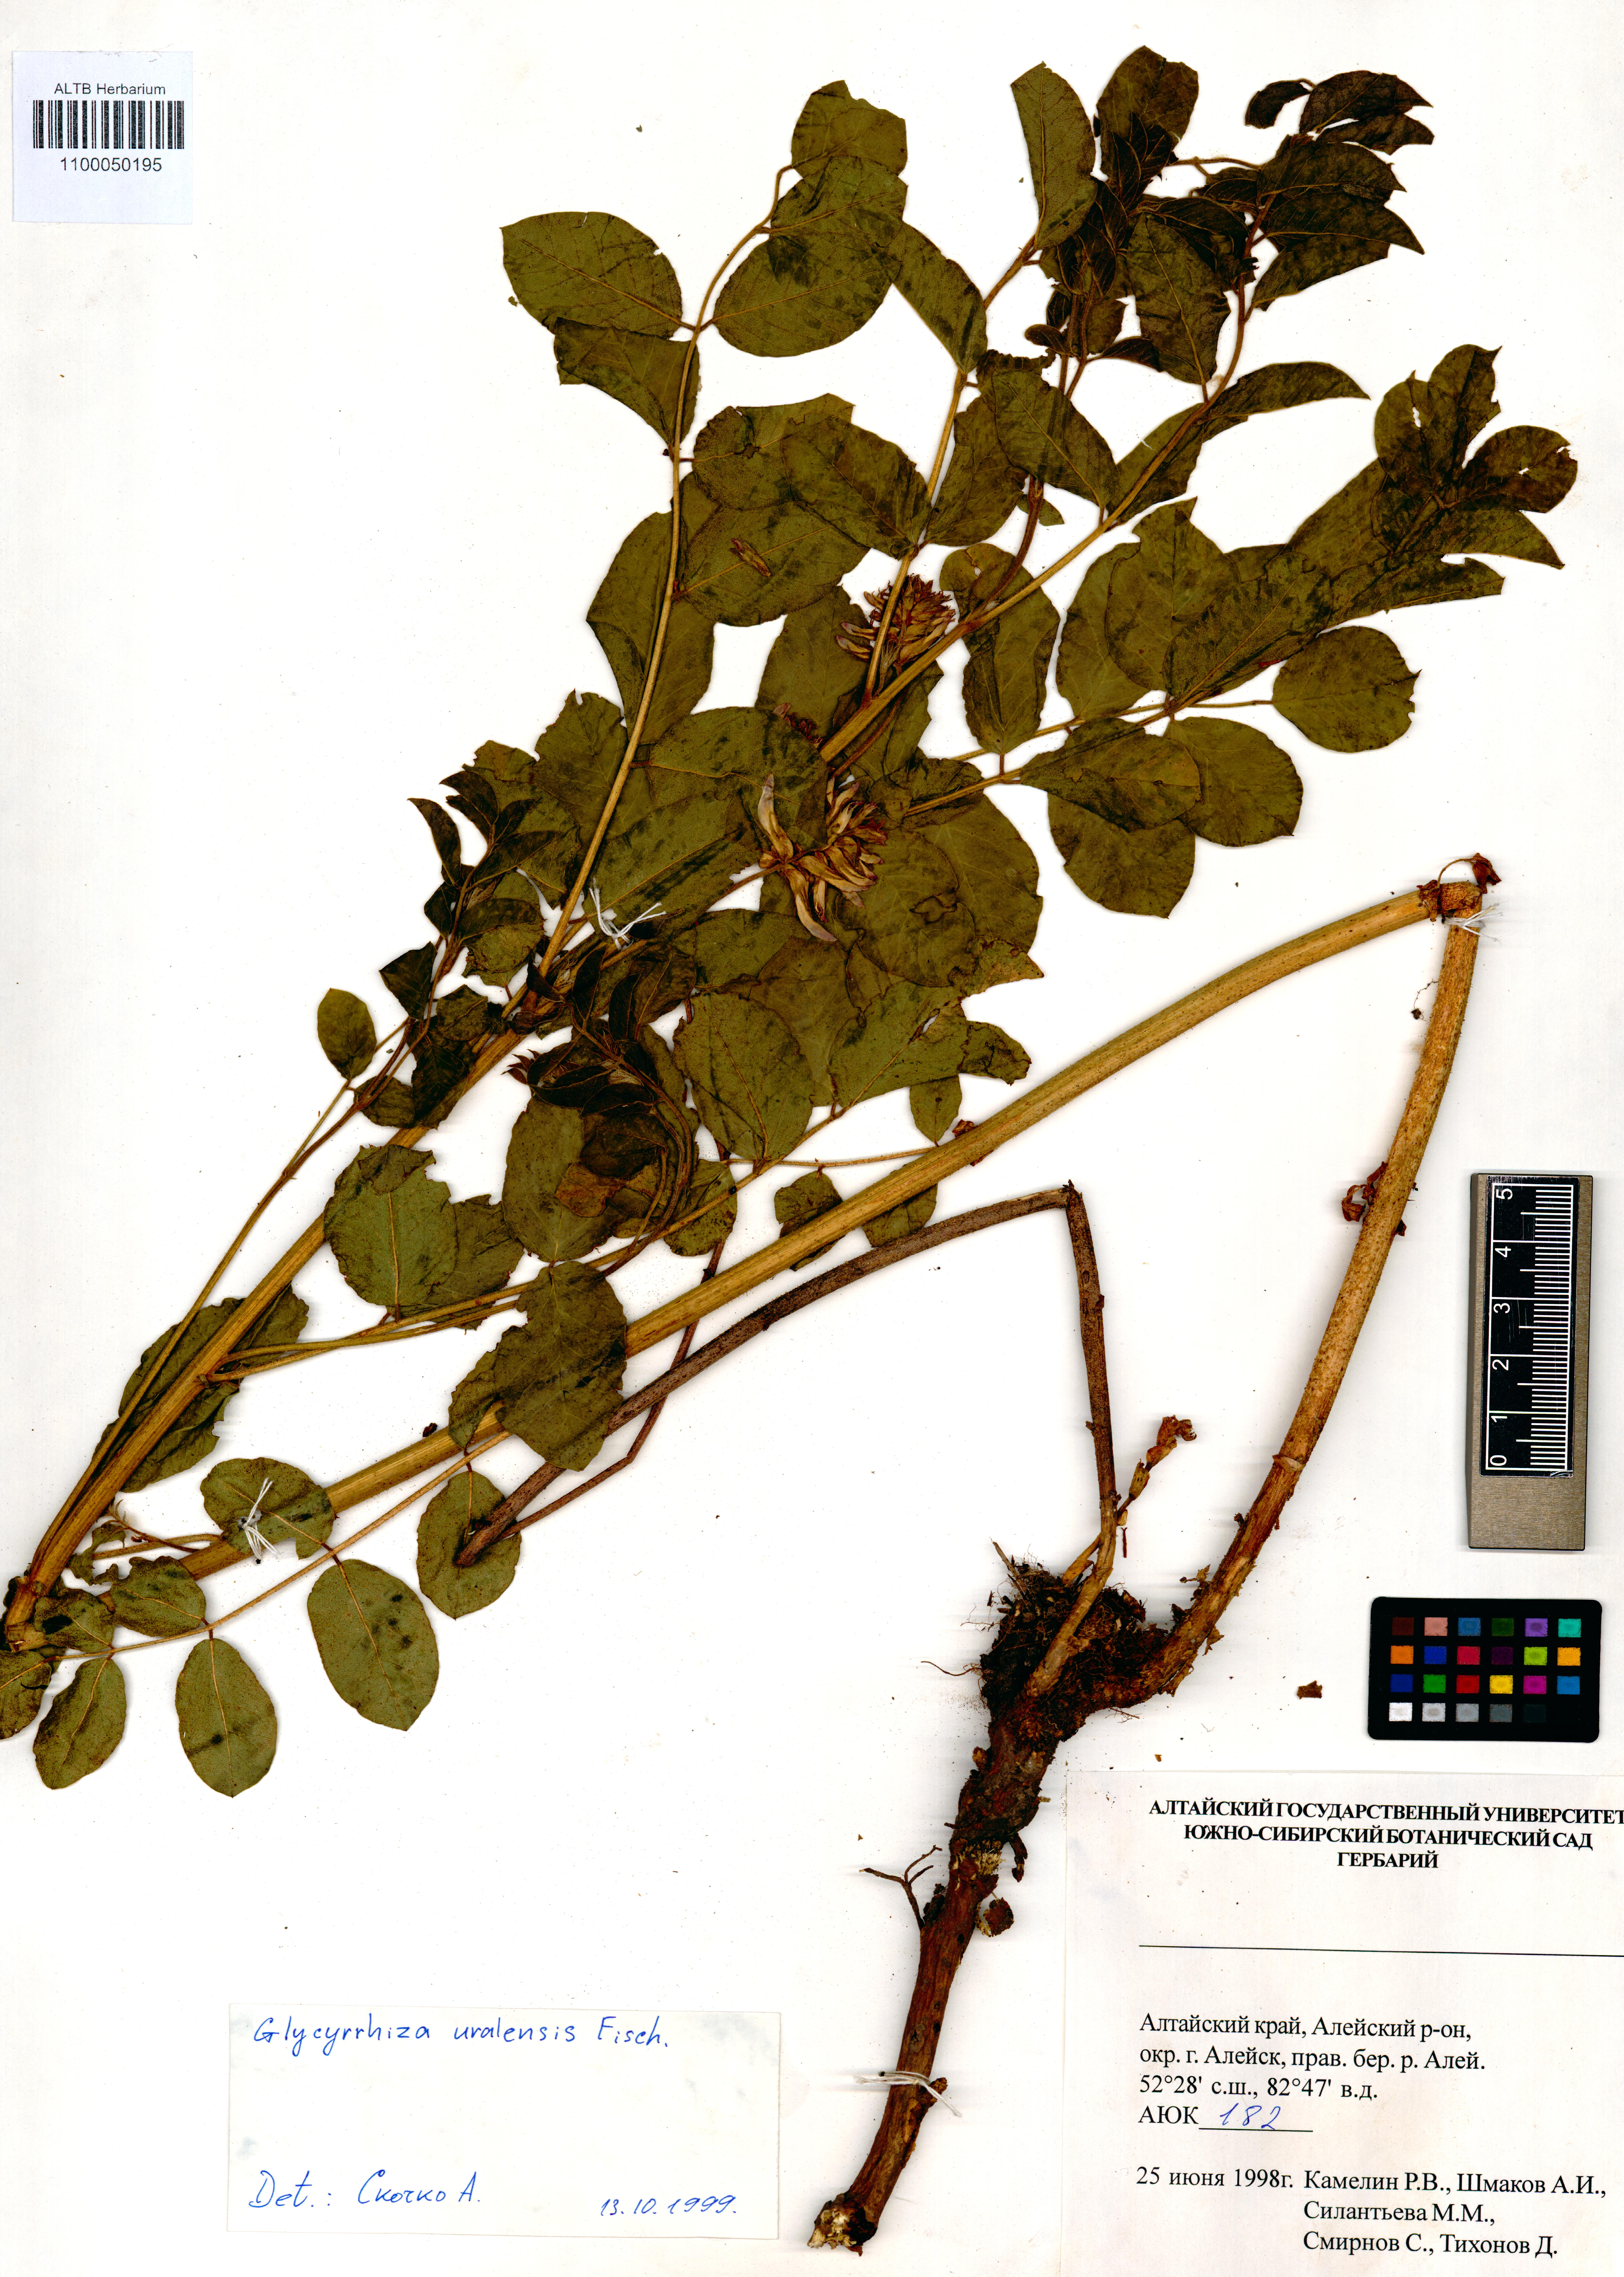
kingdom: Plantae
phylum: Tracheophyta
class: Magnoliopsida
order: Fabales
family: Fabaceae
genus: Glycyrrhiza
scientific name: Glycyrrhiza uralensis
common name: Chinese licorice
